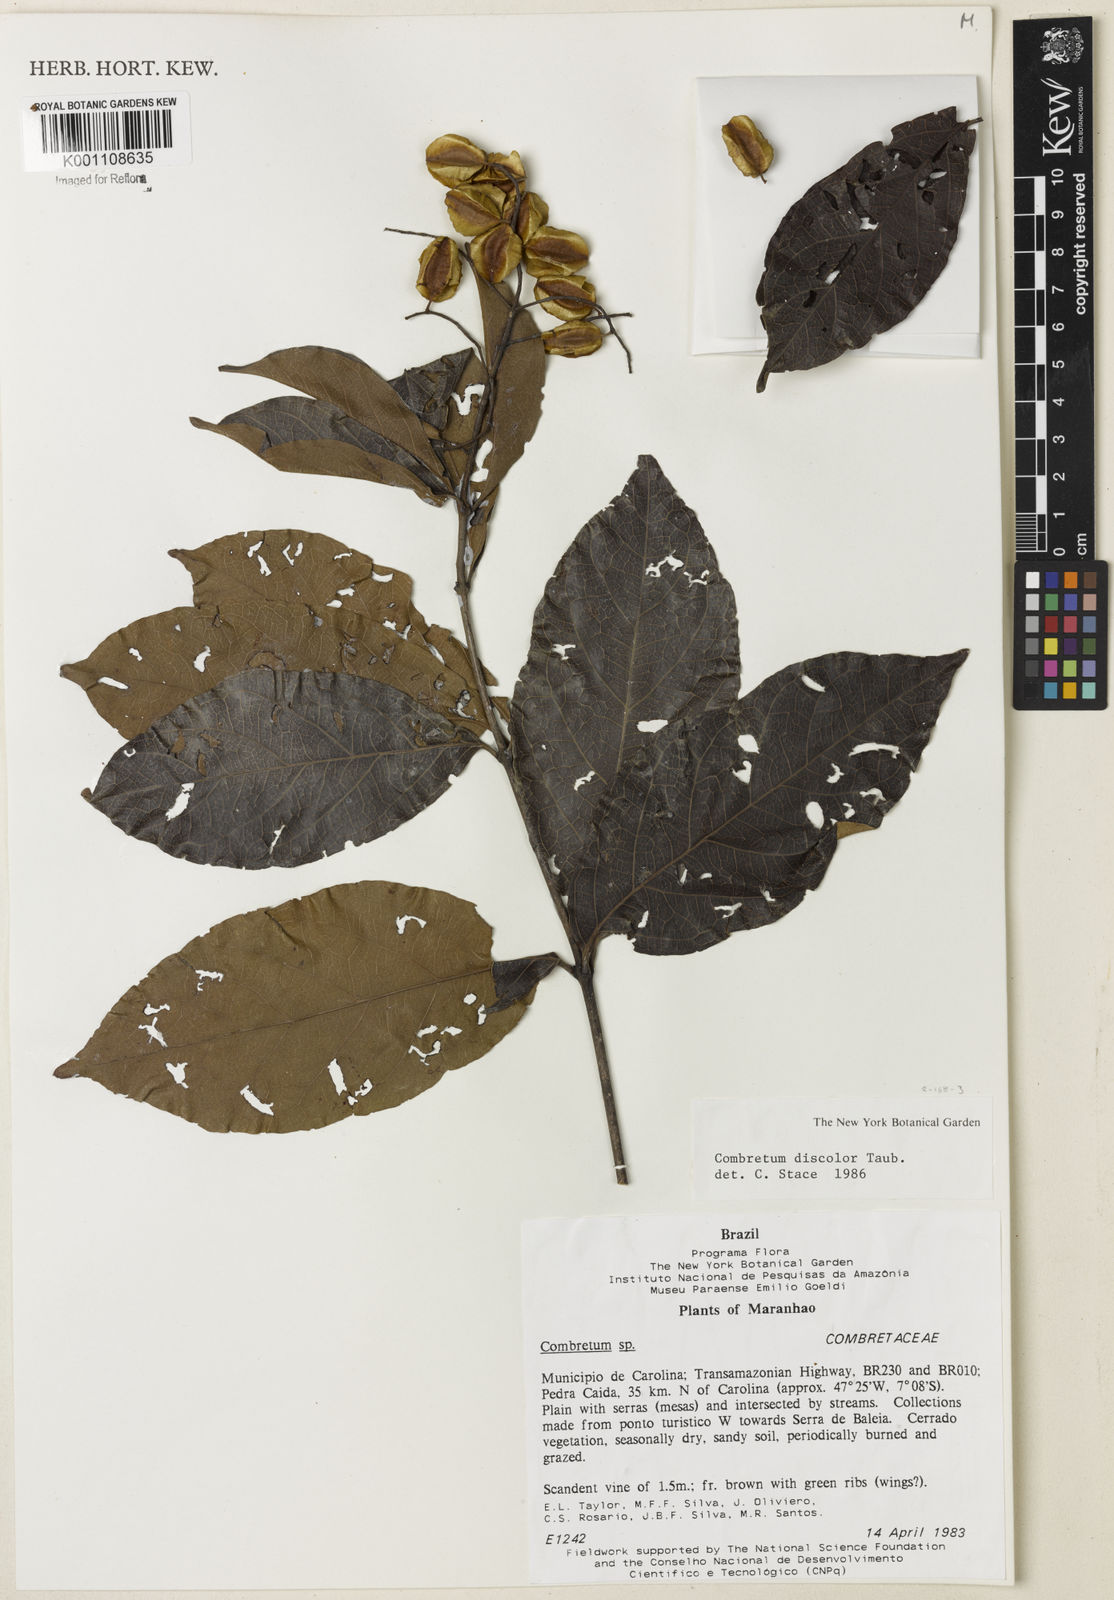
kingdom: Plantae
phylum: Tracheophyta
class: Magnoliopsida
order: Myrtales
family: Combretaceae
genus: Combretum
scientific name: Combretum discolor
